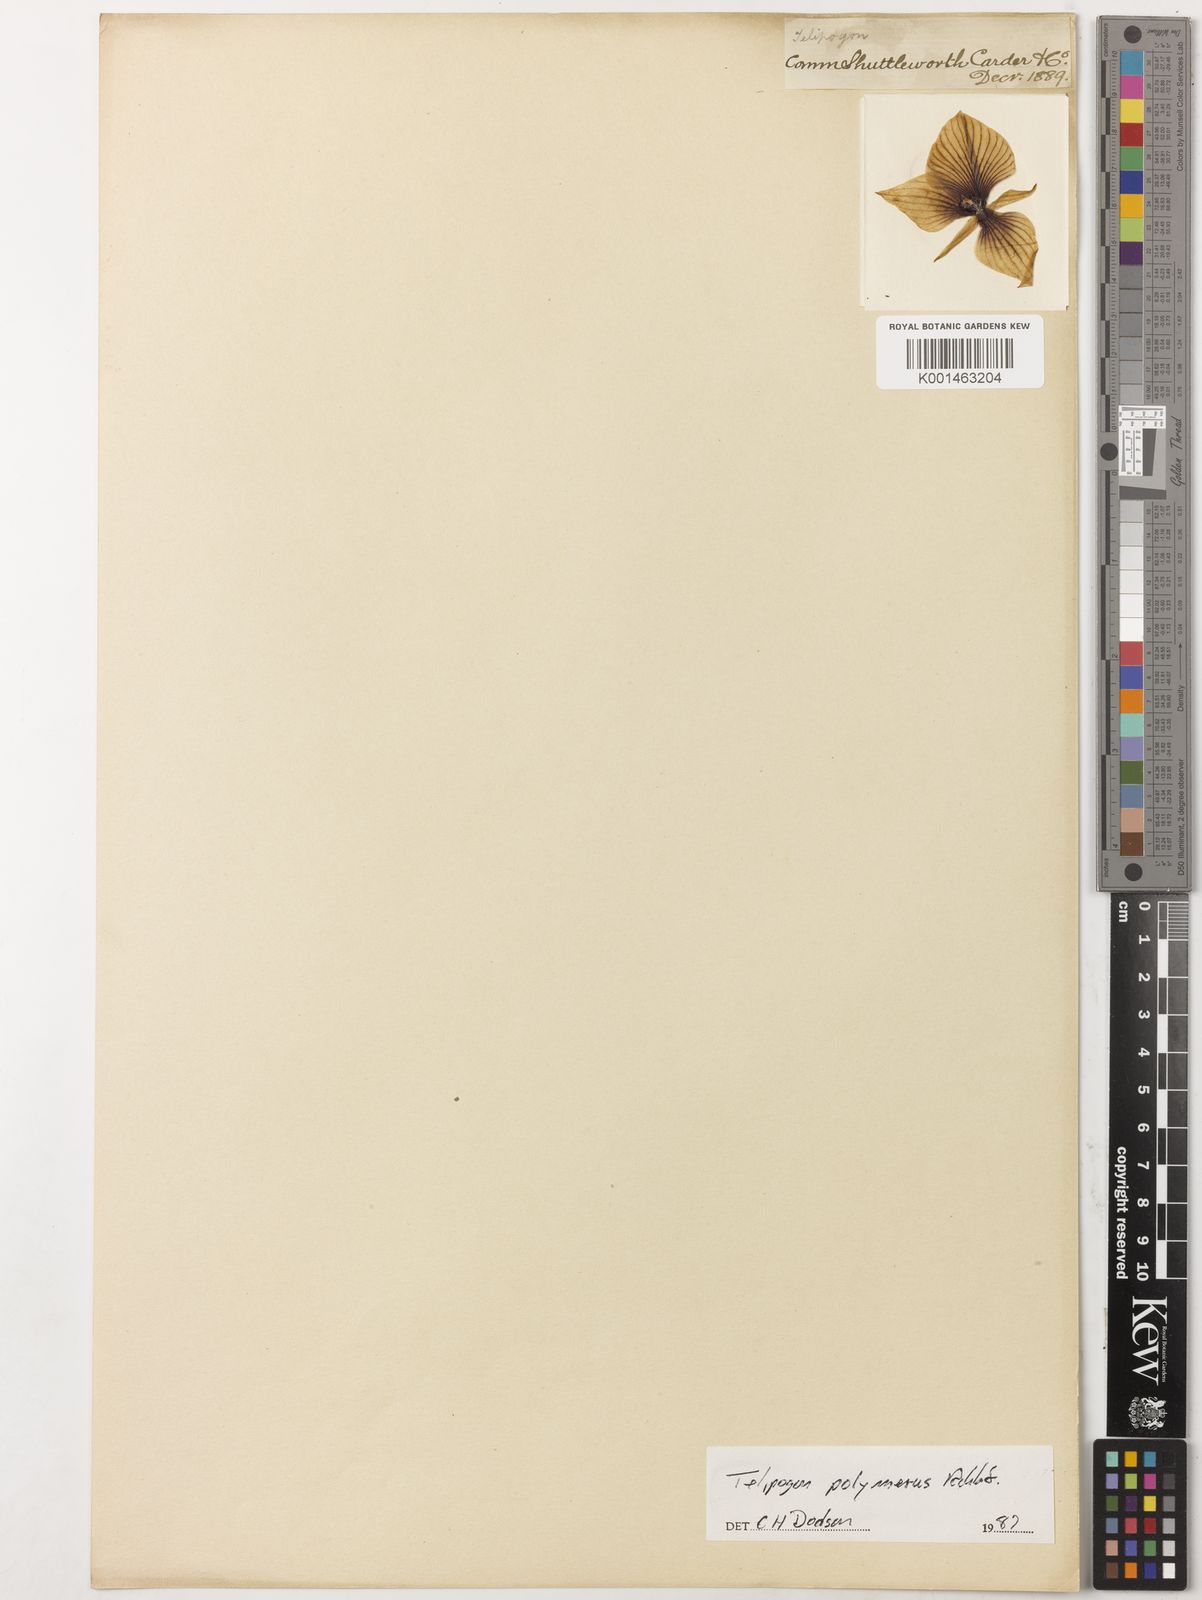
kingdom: Plantae
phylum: Tracheophyta
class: Liliopsida
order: Asparagales
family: Orchidaceae
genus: Telipogon
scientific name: Telipogon polymerus
